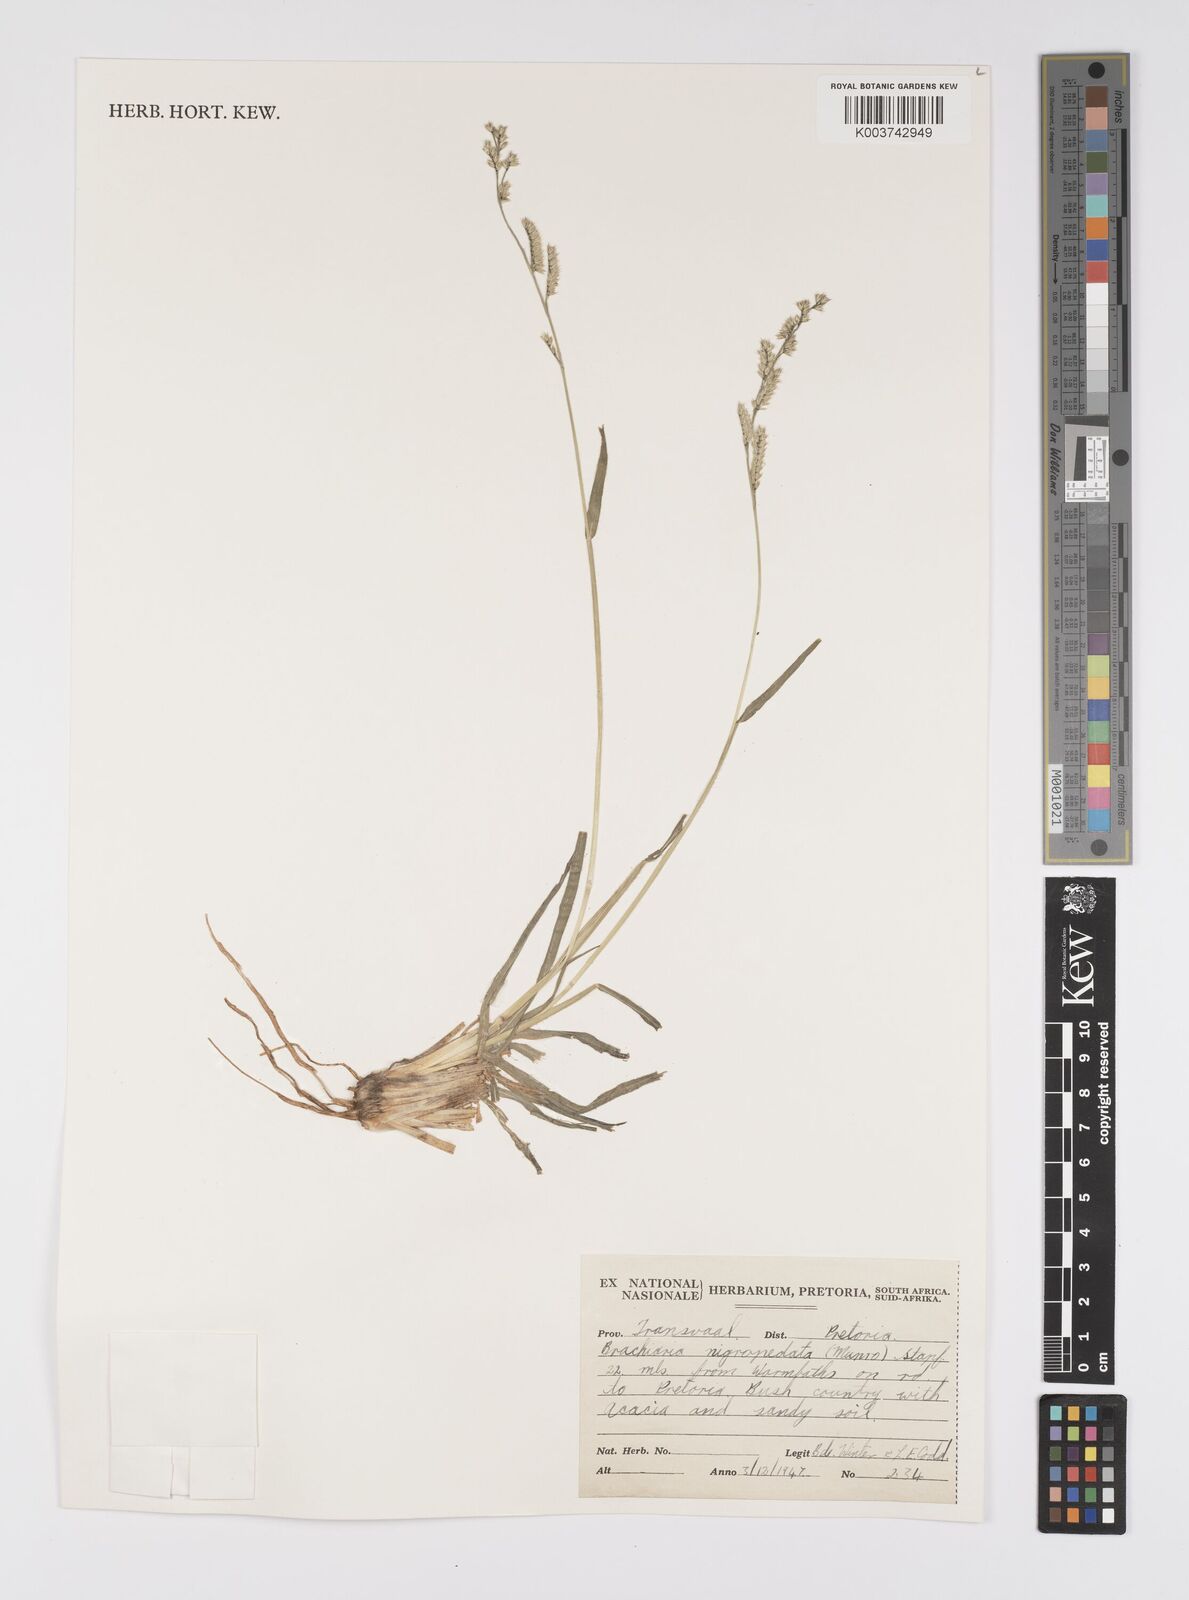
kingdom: Plantae
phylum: Tracheophyta
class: Liliopsida
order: Poales
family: Poaceae
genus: Urochloa
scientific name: Urochloa nigropedata
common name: Spotted signal grass
